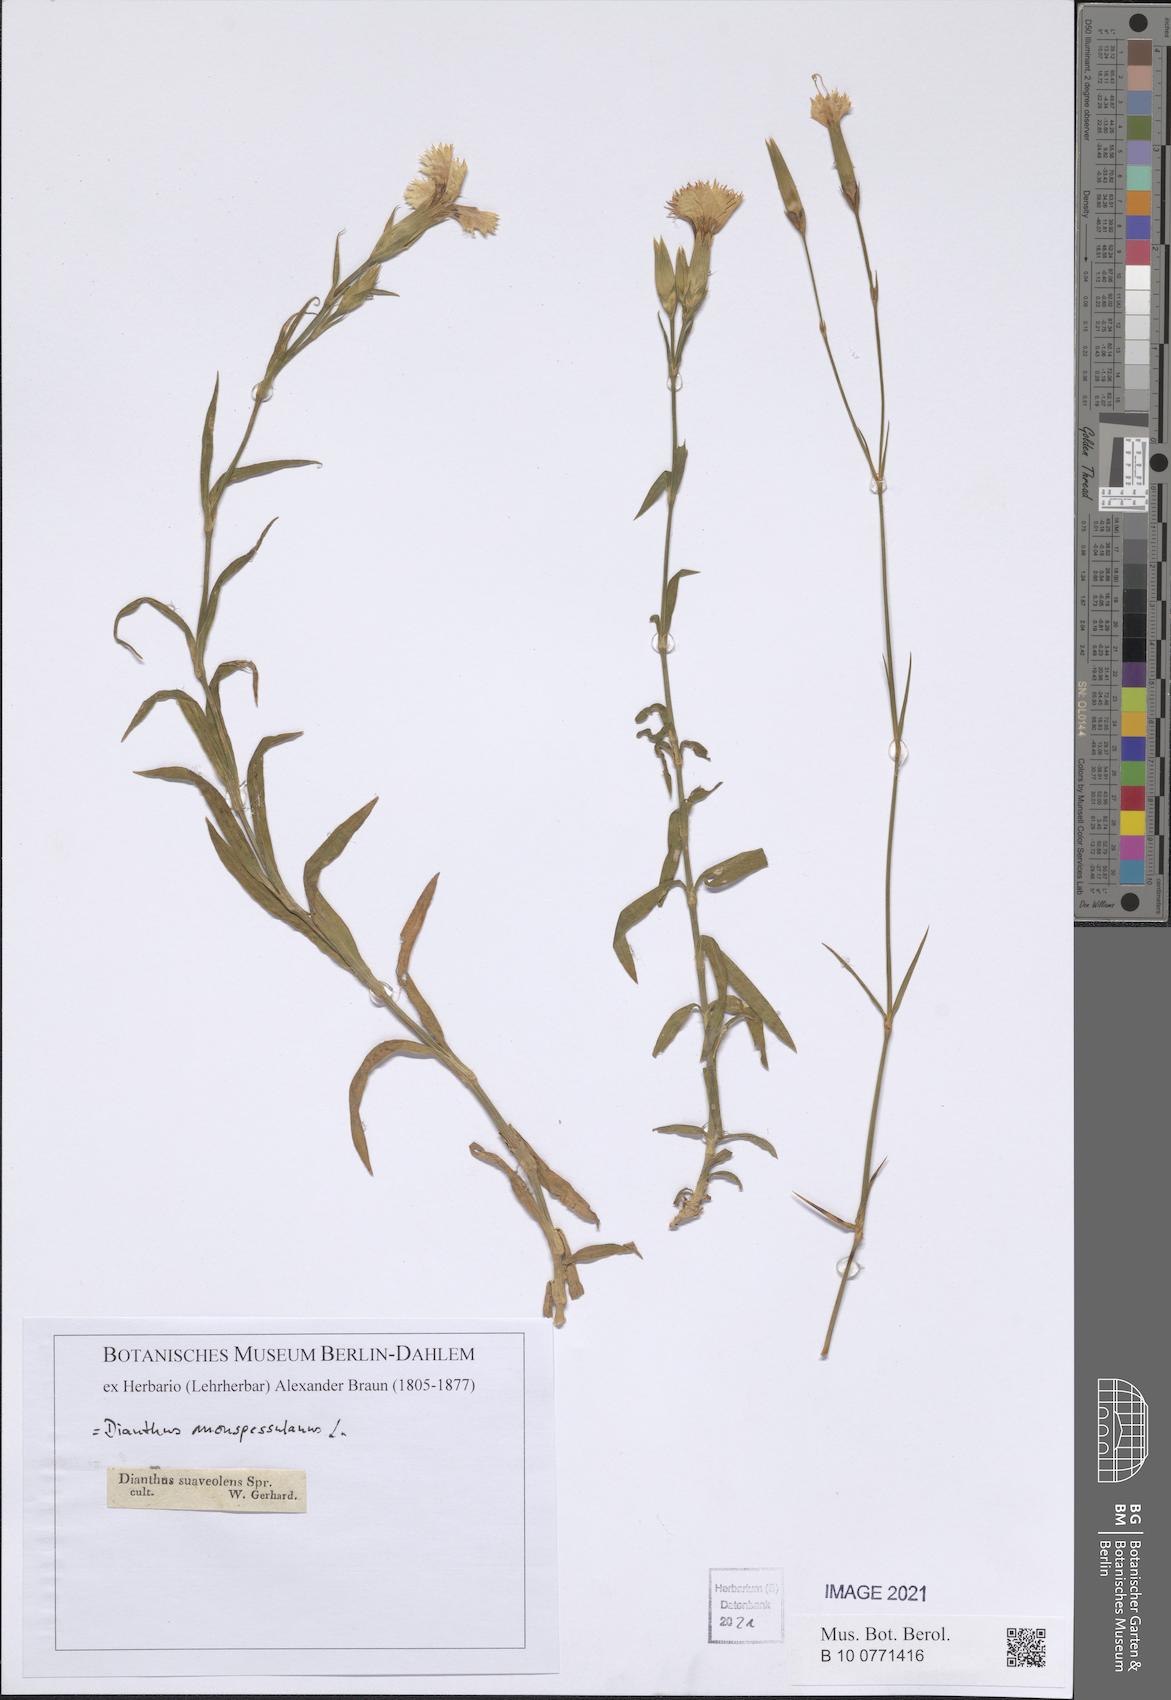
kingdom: Plantae
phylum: Tracheophyta
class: Magnoliopsida
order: Caryophyllales
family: Caryophyllaceae
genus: Dianthus
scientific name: Dianthus hyssopifolius
